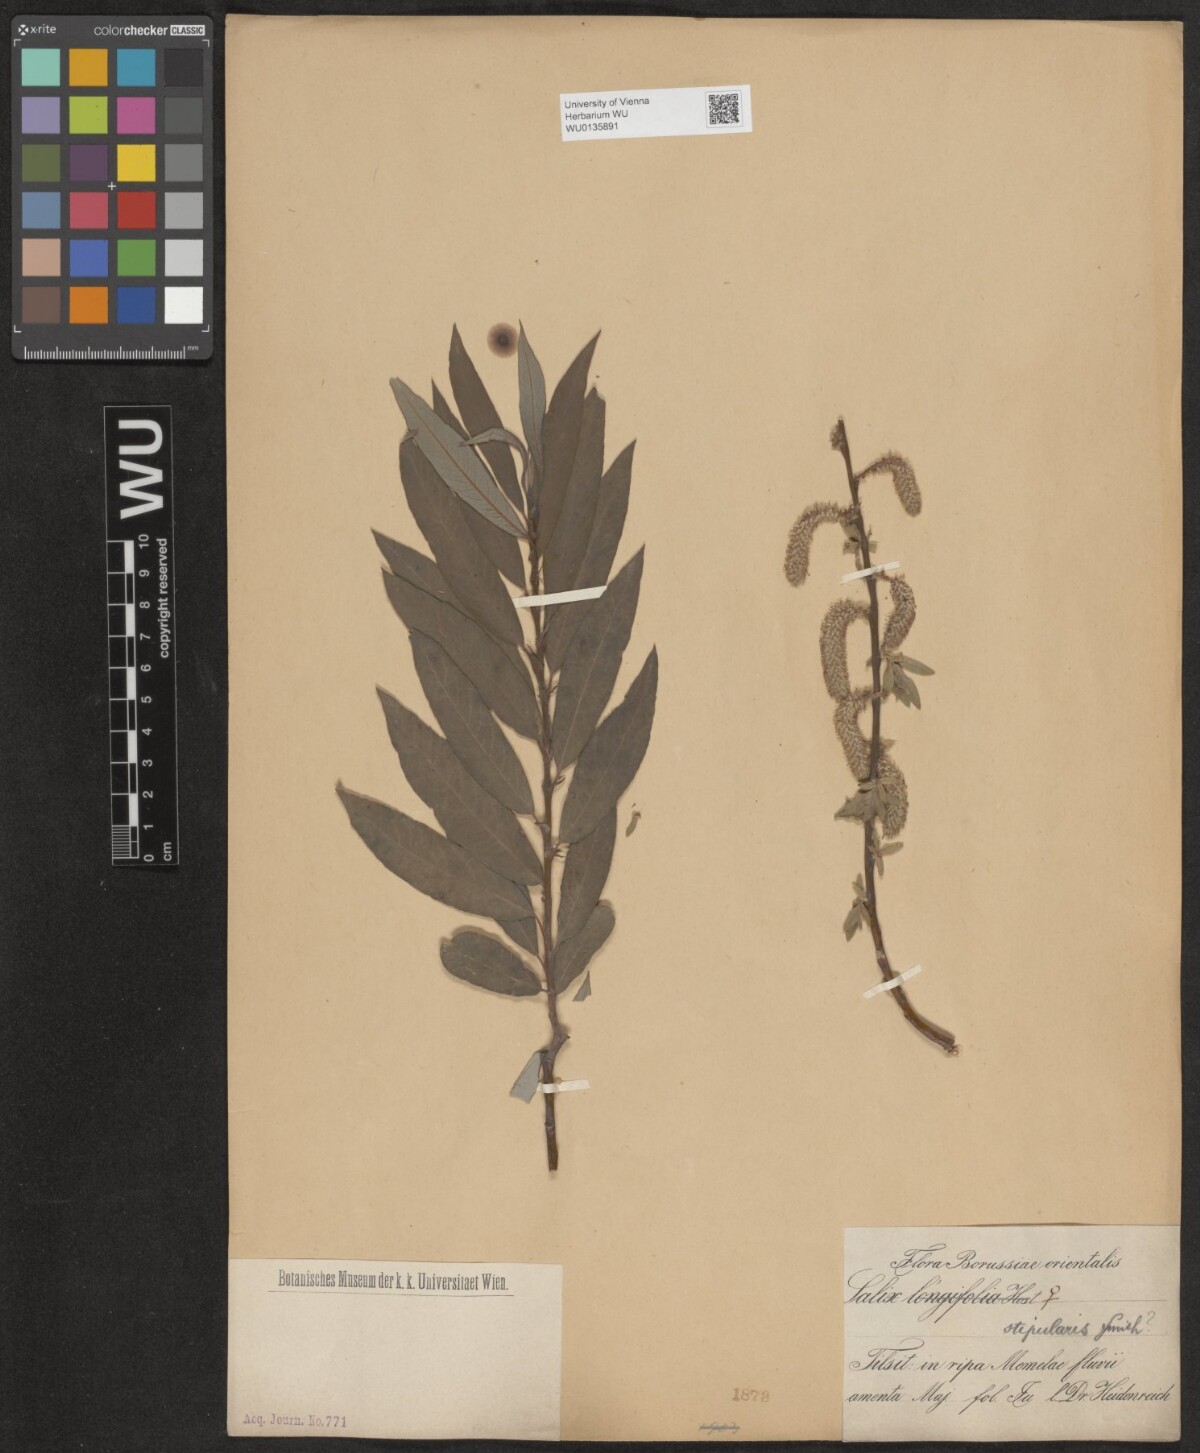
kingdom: Plantae
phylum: Tracheophyta
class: Magnoliopsida
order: Malpighiales
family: Salicaceae
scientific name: Salicaceae
